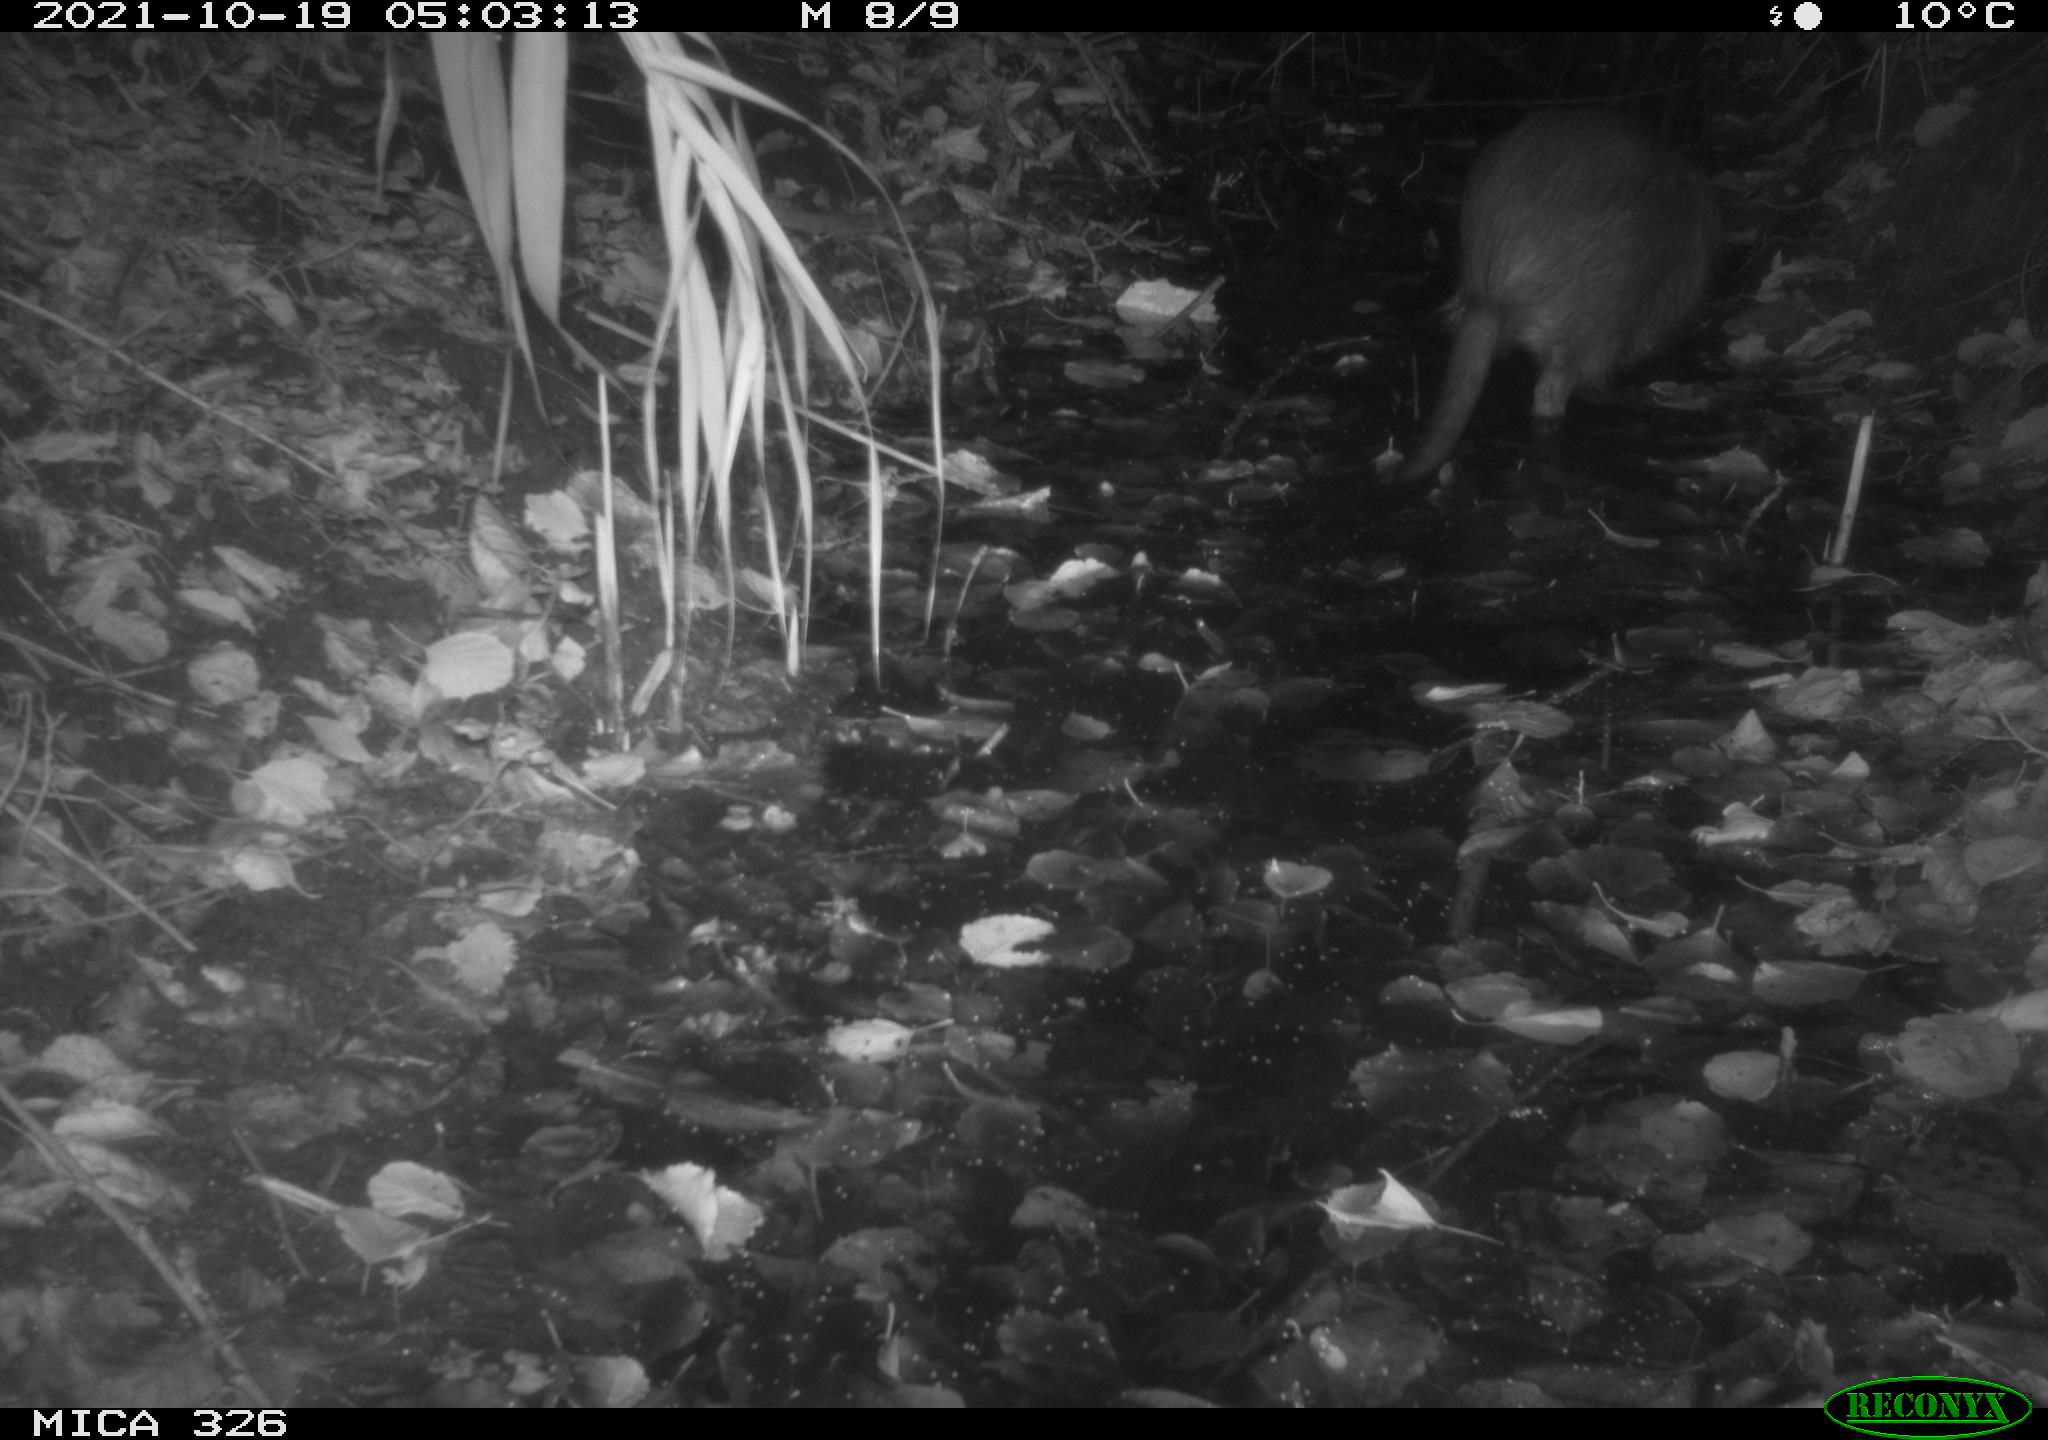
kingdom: Animalia
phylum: Chordata
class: Mammalia
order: Rodentia
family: Myocastoridae
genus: Myocastor
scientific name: Myocastor coypus
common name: Coypu
